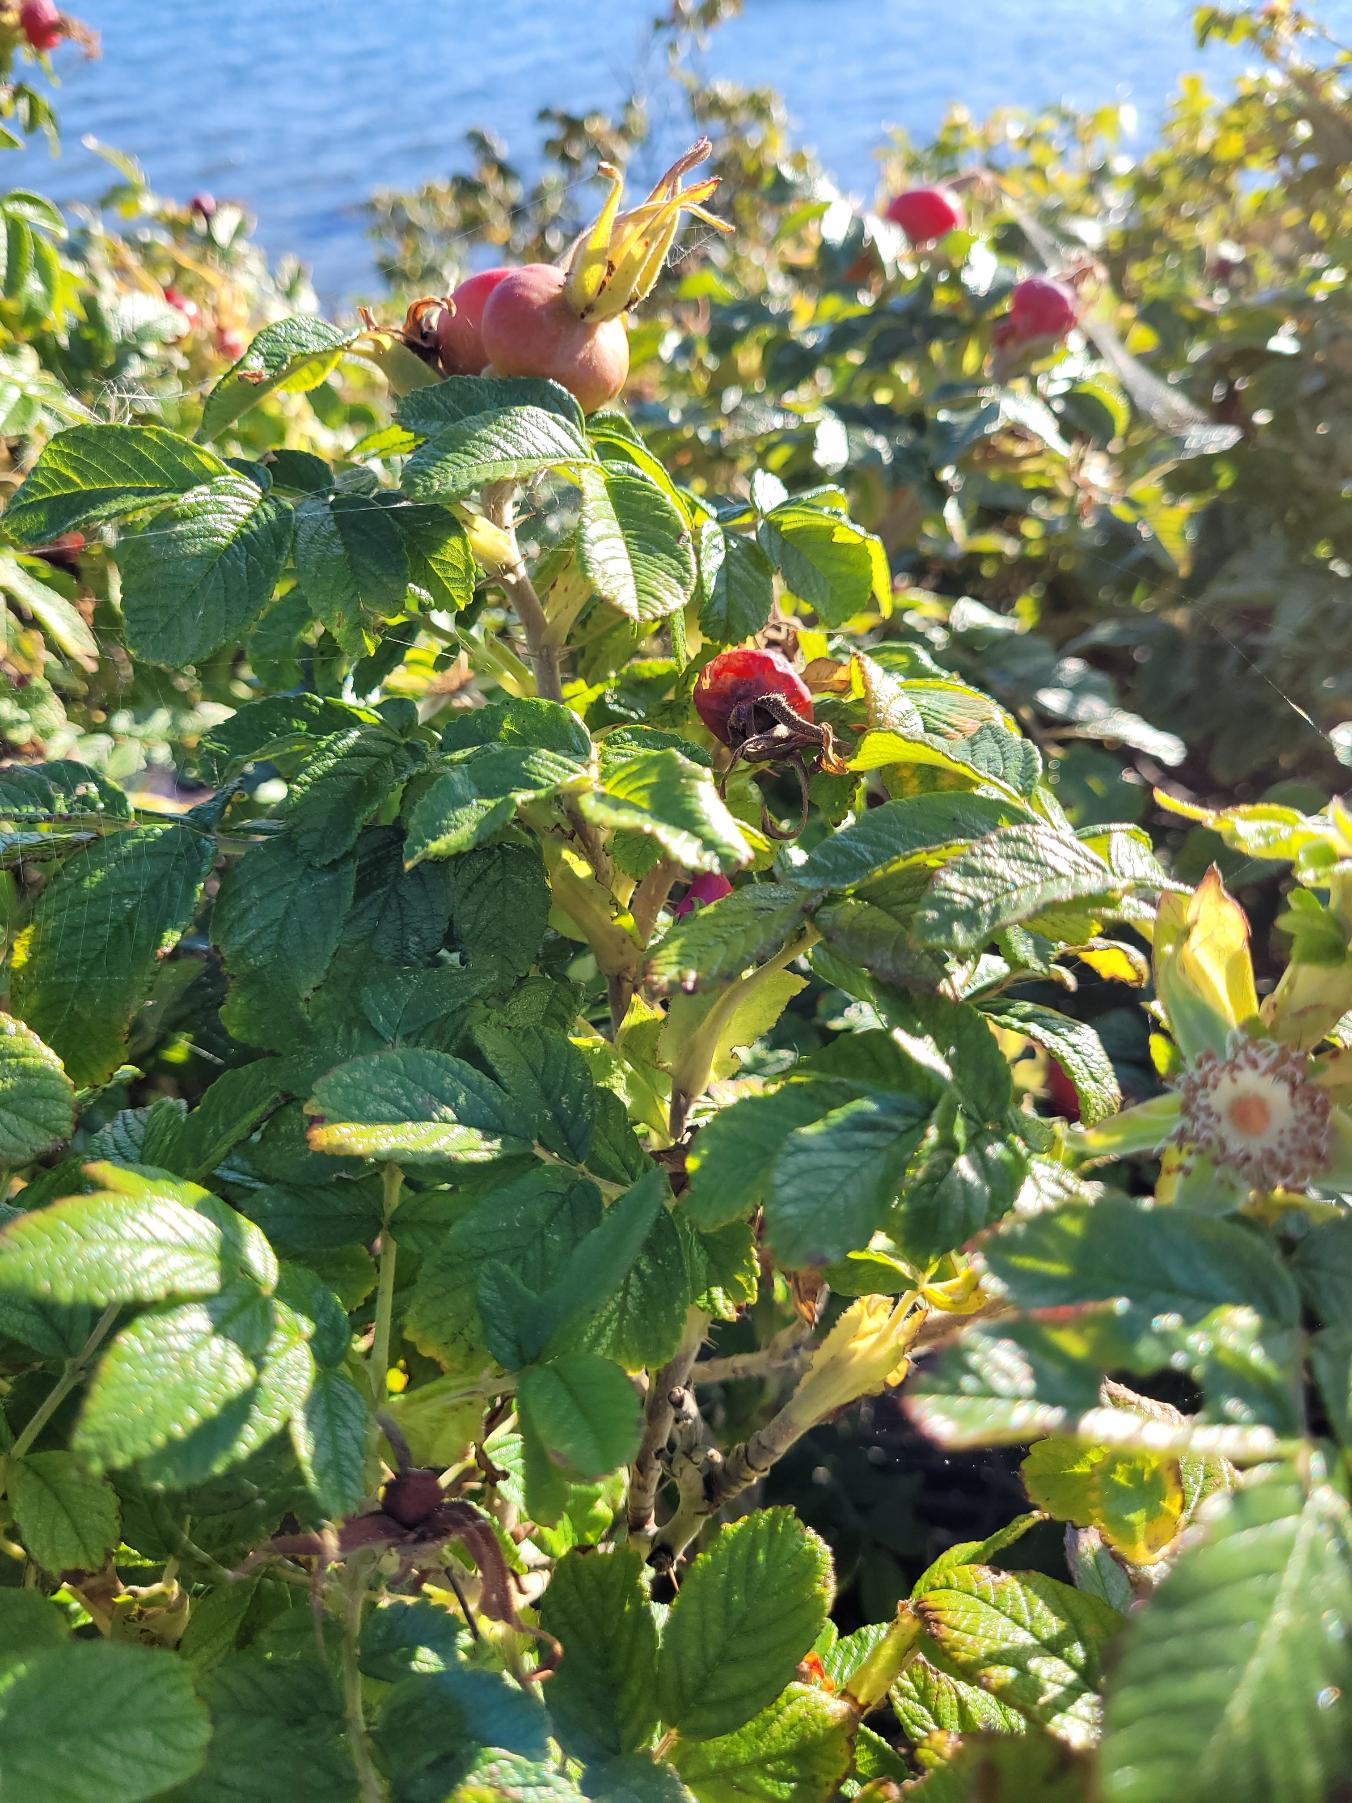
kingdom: Plantae
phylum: Tracheophyta
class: Magnoliopsida
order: Rosales
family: Rosaceae
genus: Rosa
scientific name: Rosa rugosa
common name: Rynket rose
